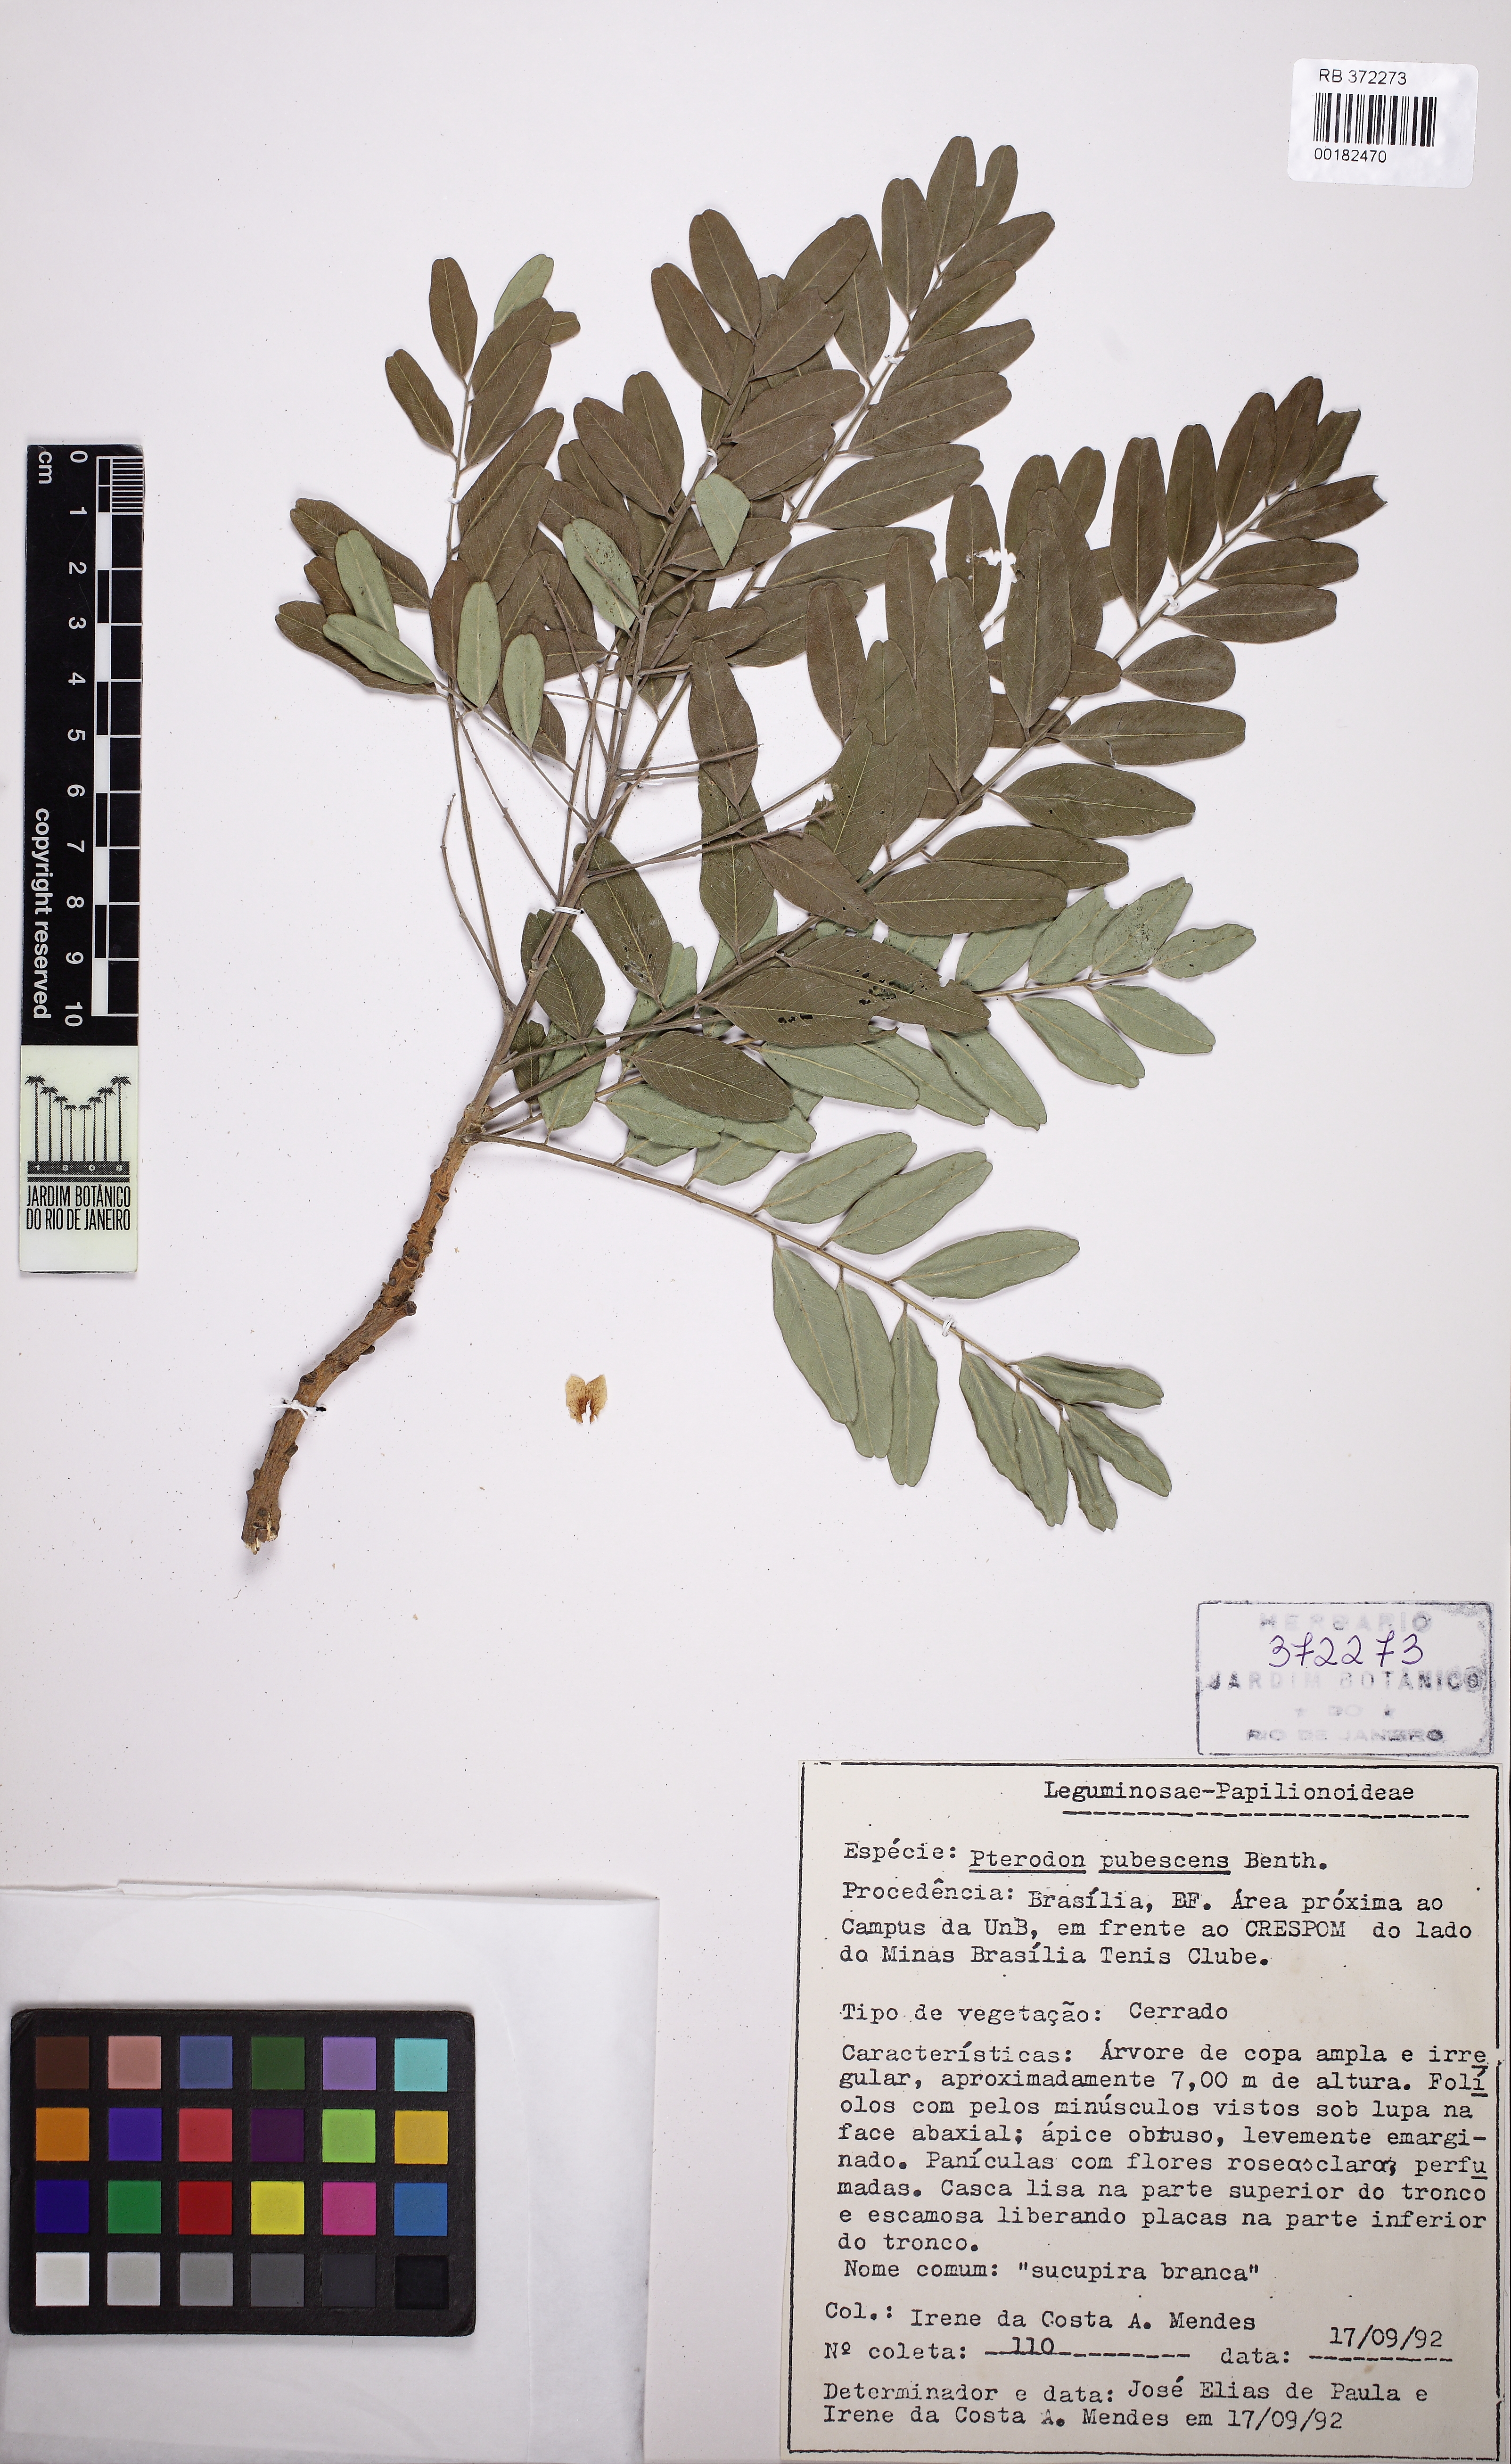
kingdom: Plantae
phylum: Tracheophyta
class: Magnoliopsida
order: Fabales
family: Fabaceae
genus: Pterodon
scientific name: Pterodon emarginatus
